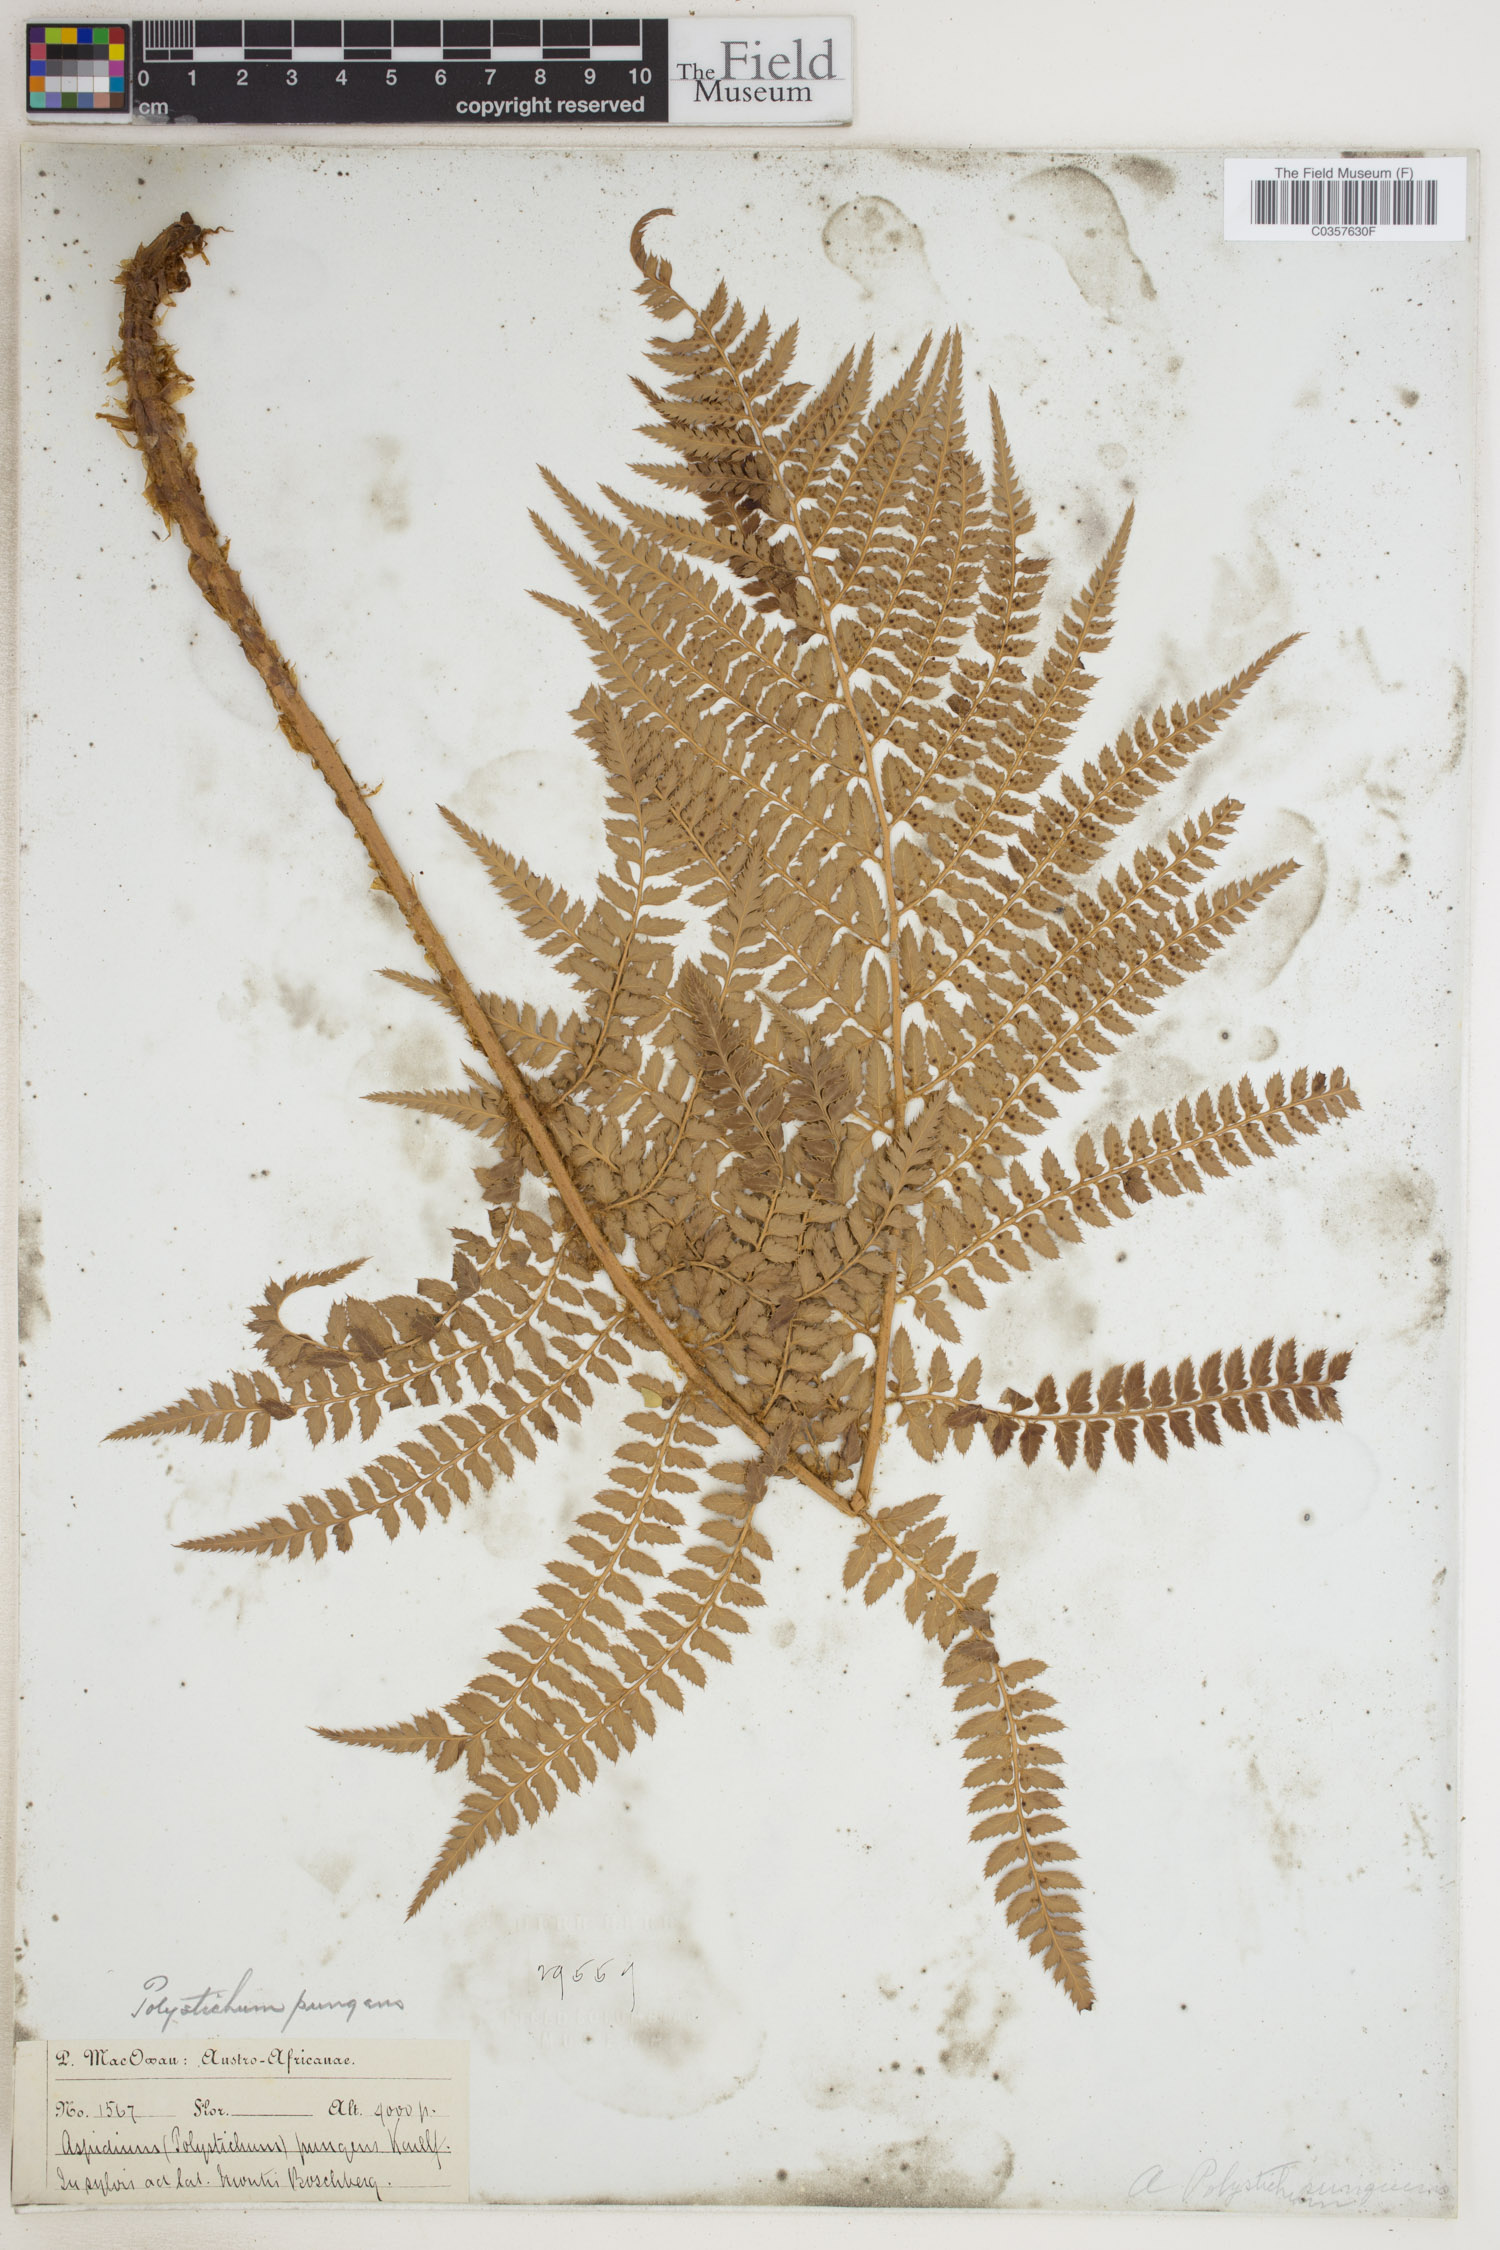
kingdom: Plantae
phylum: Tracheophyta
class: Polypodiopsida
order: Polypodiales
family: Dryopteridaceae
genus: Polystichum
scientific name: Polystichum pungens
